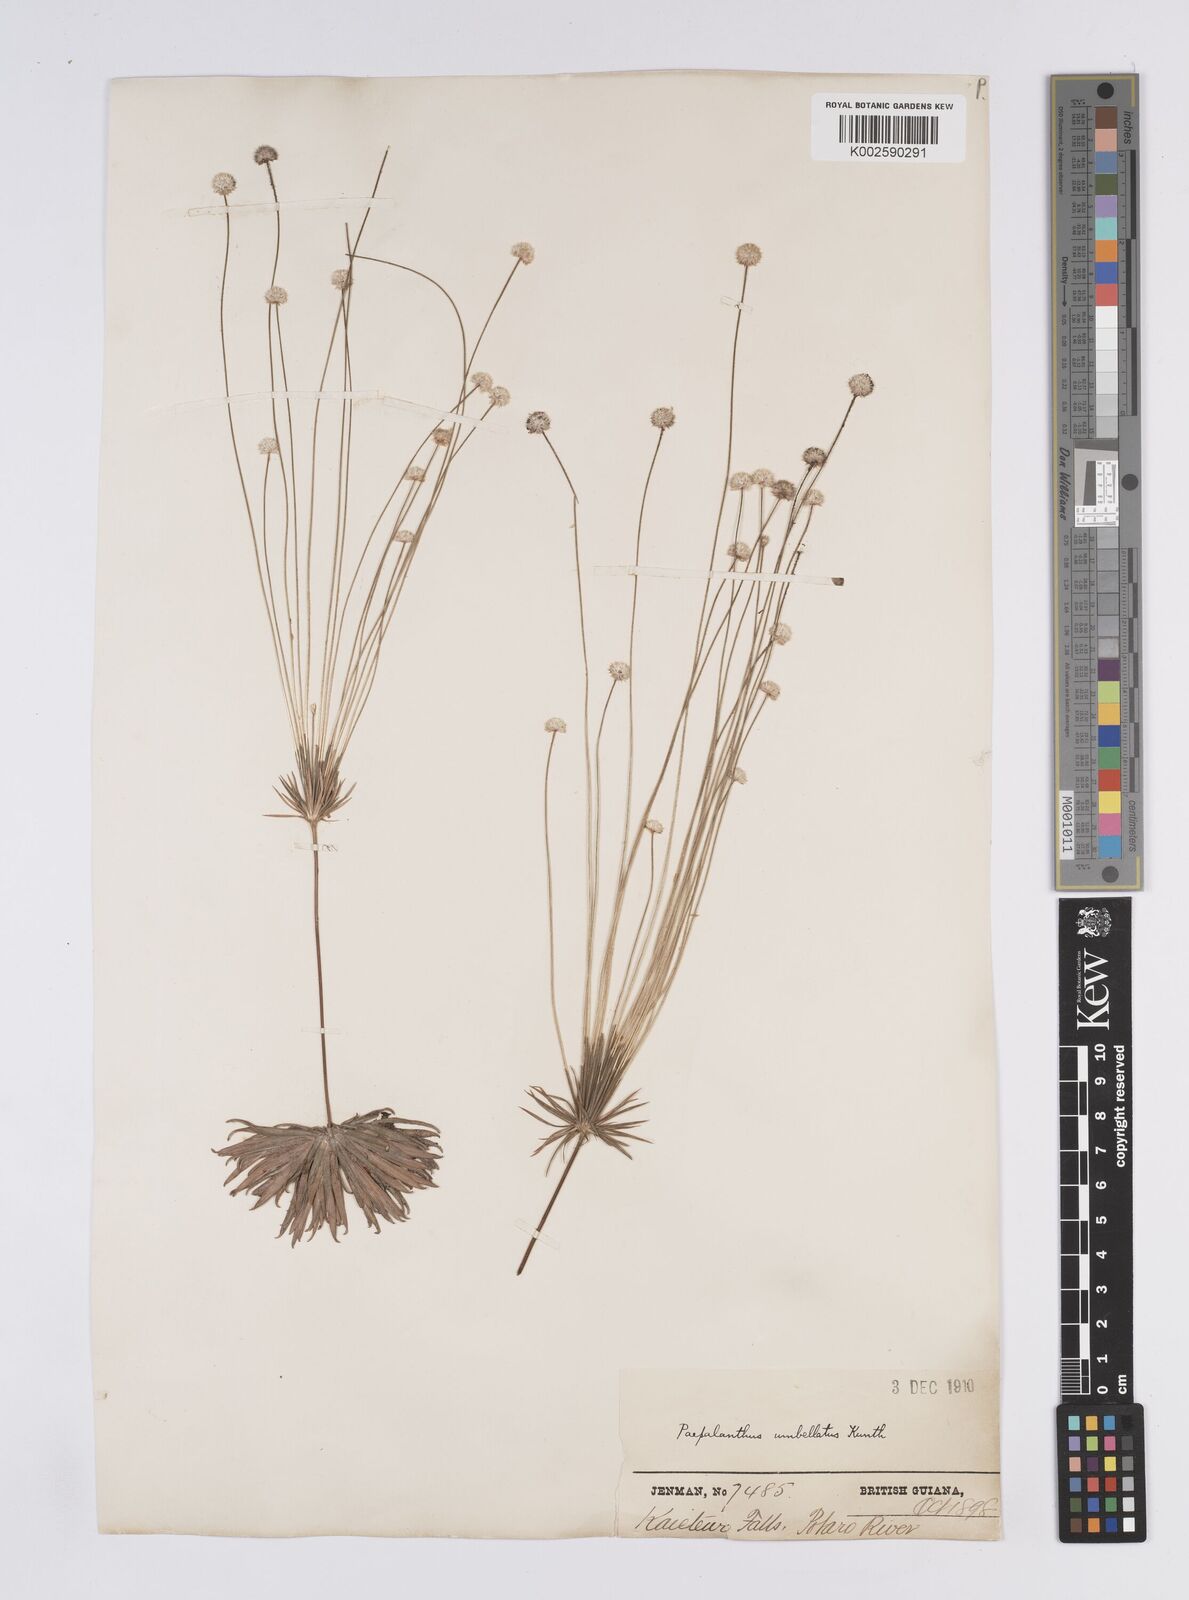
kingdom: Plantae
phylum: Tracheophyta
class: Liliopsida
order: Poales
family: Eriocaulaceae
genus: Syngonanthus
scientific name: Syngonanthus umbellatus
